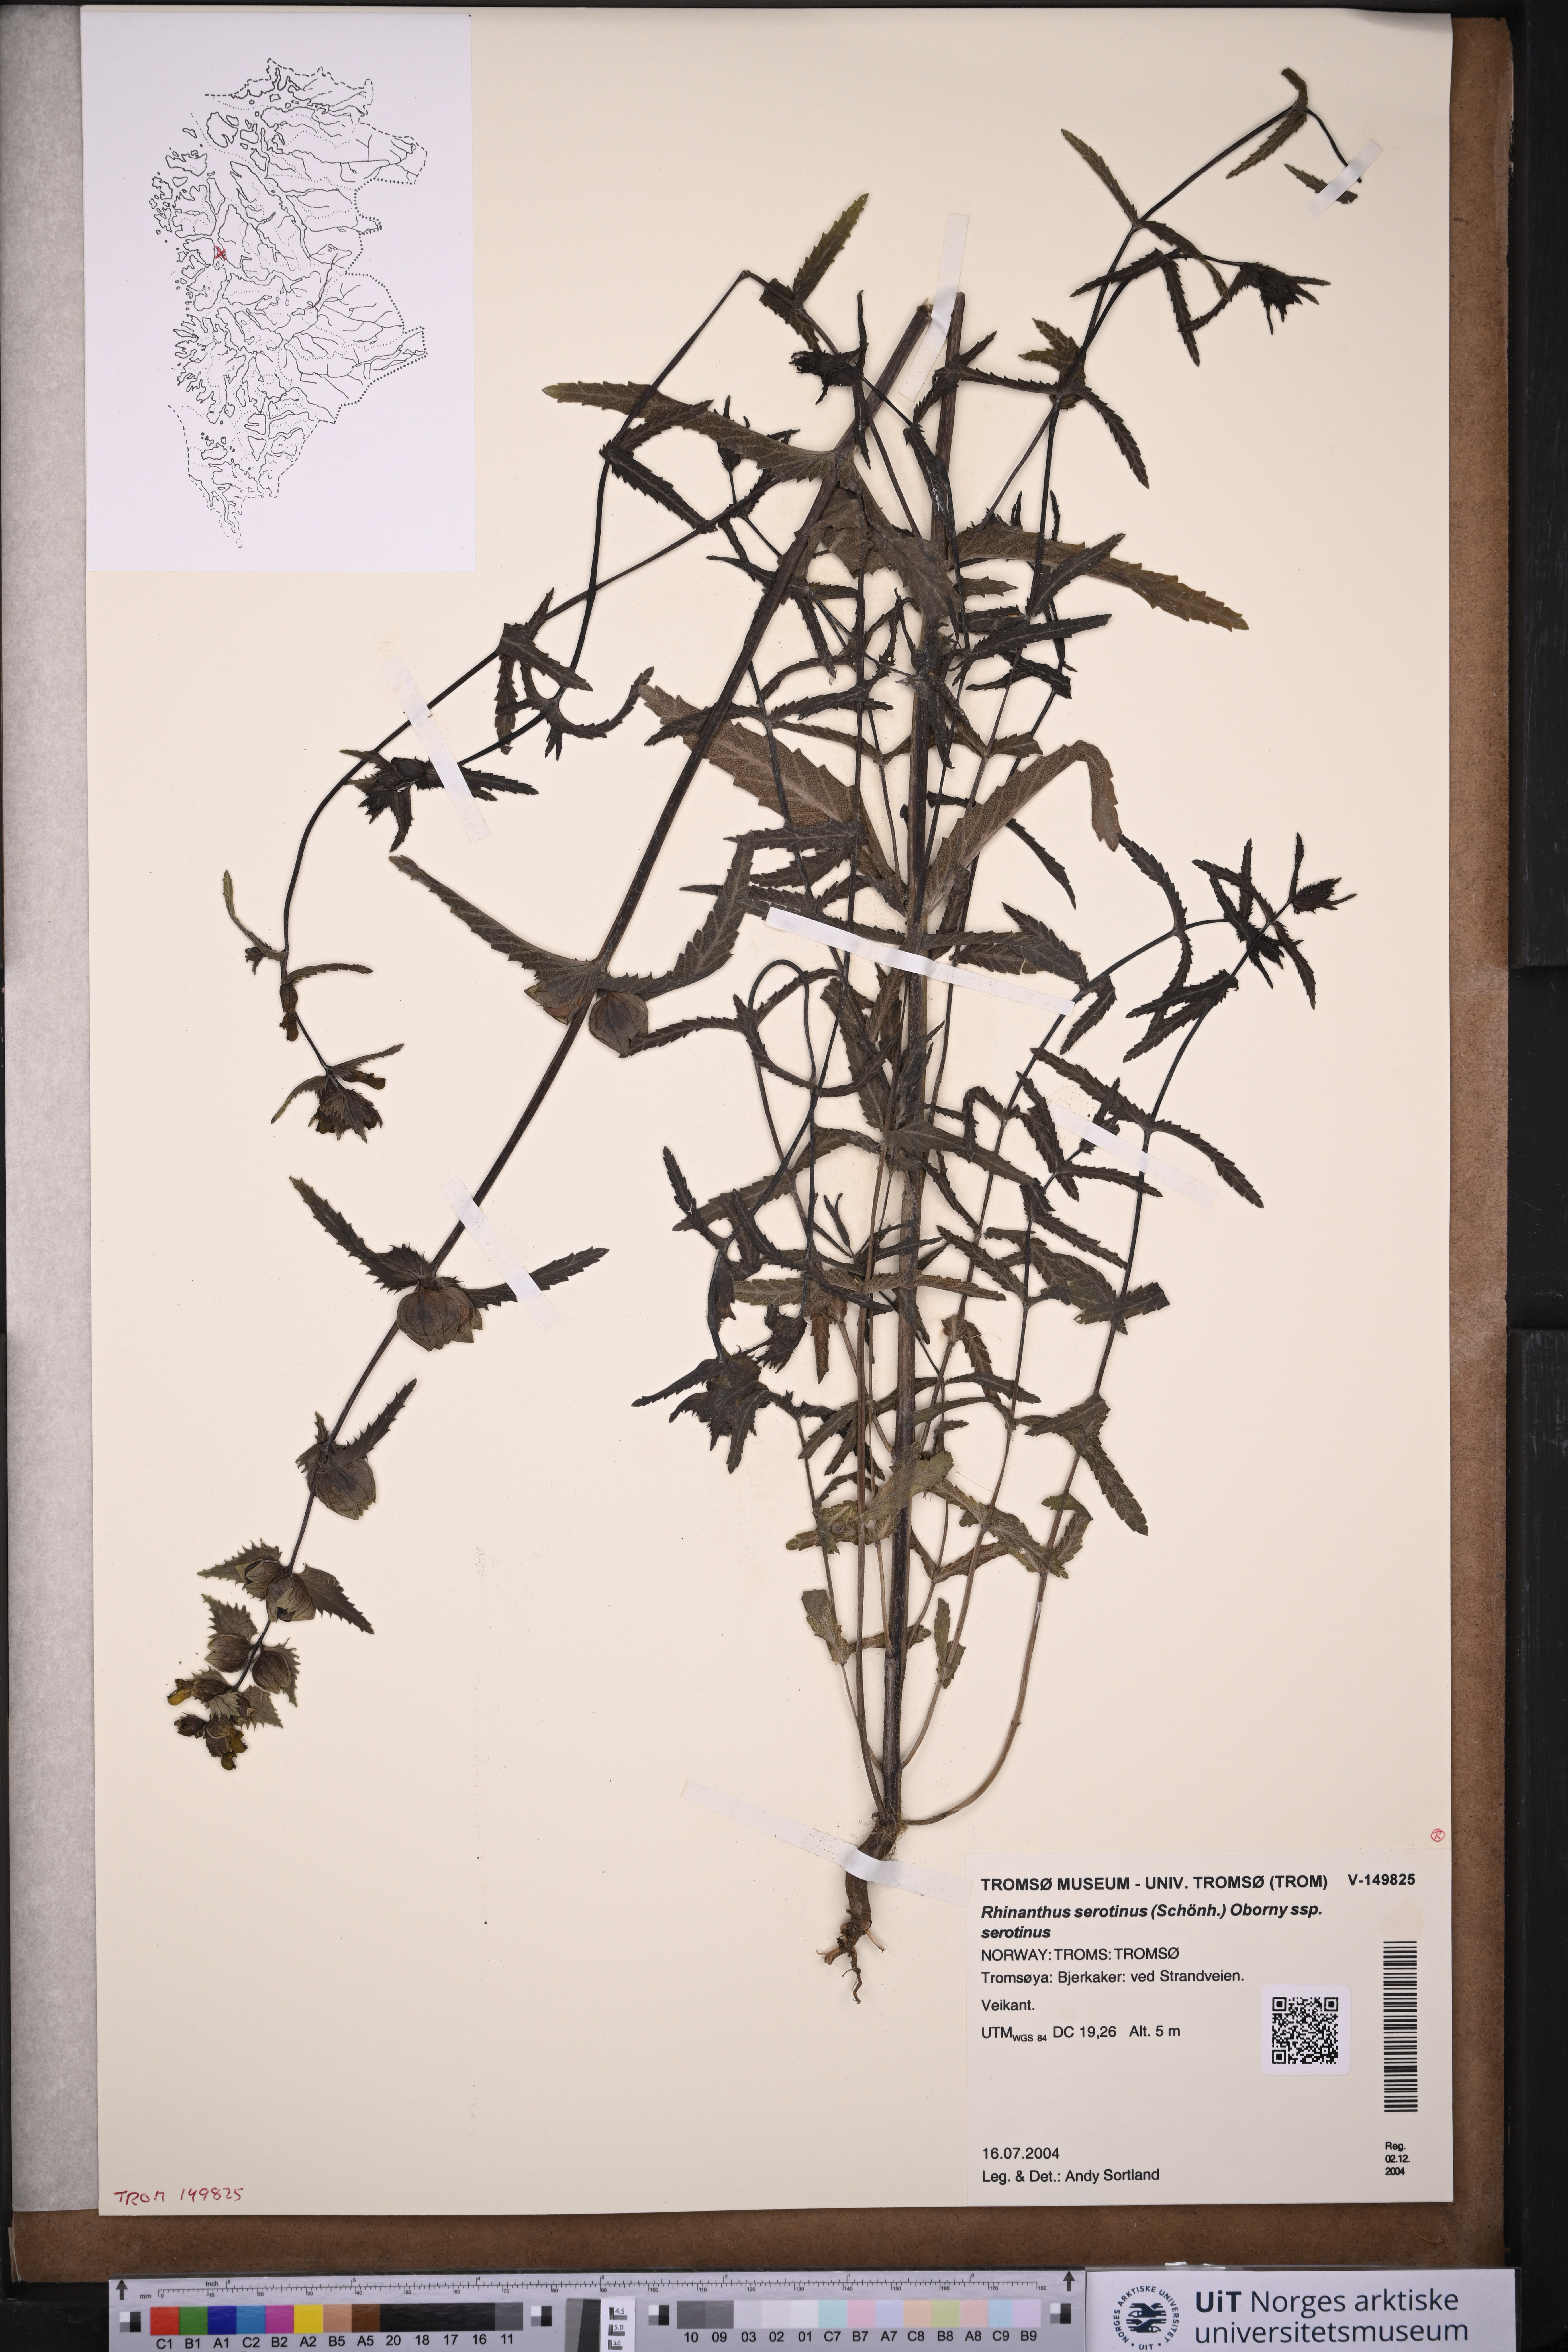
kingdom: Plantae
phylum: Tracheophyta
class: Magnoliopsida
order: Lamiales
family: Orobanchaceae
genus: Rhinanthus
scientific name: Rhinanthus
